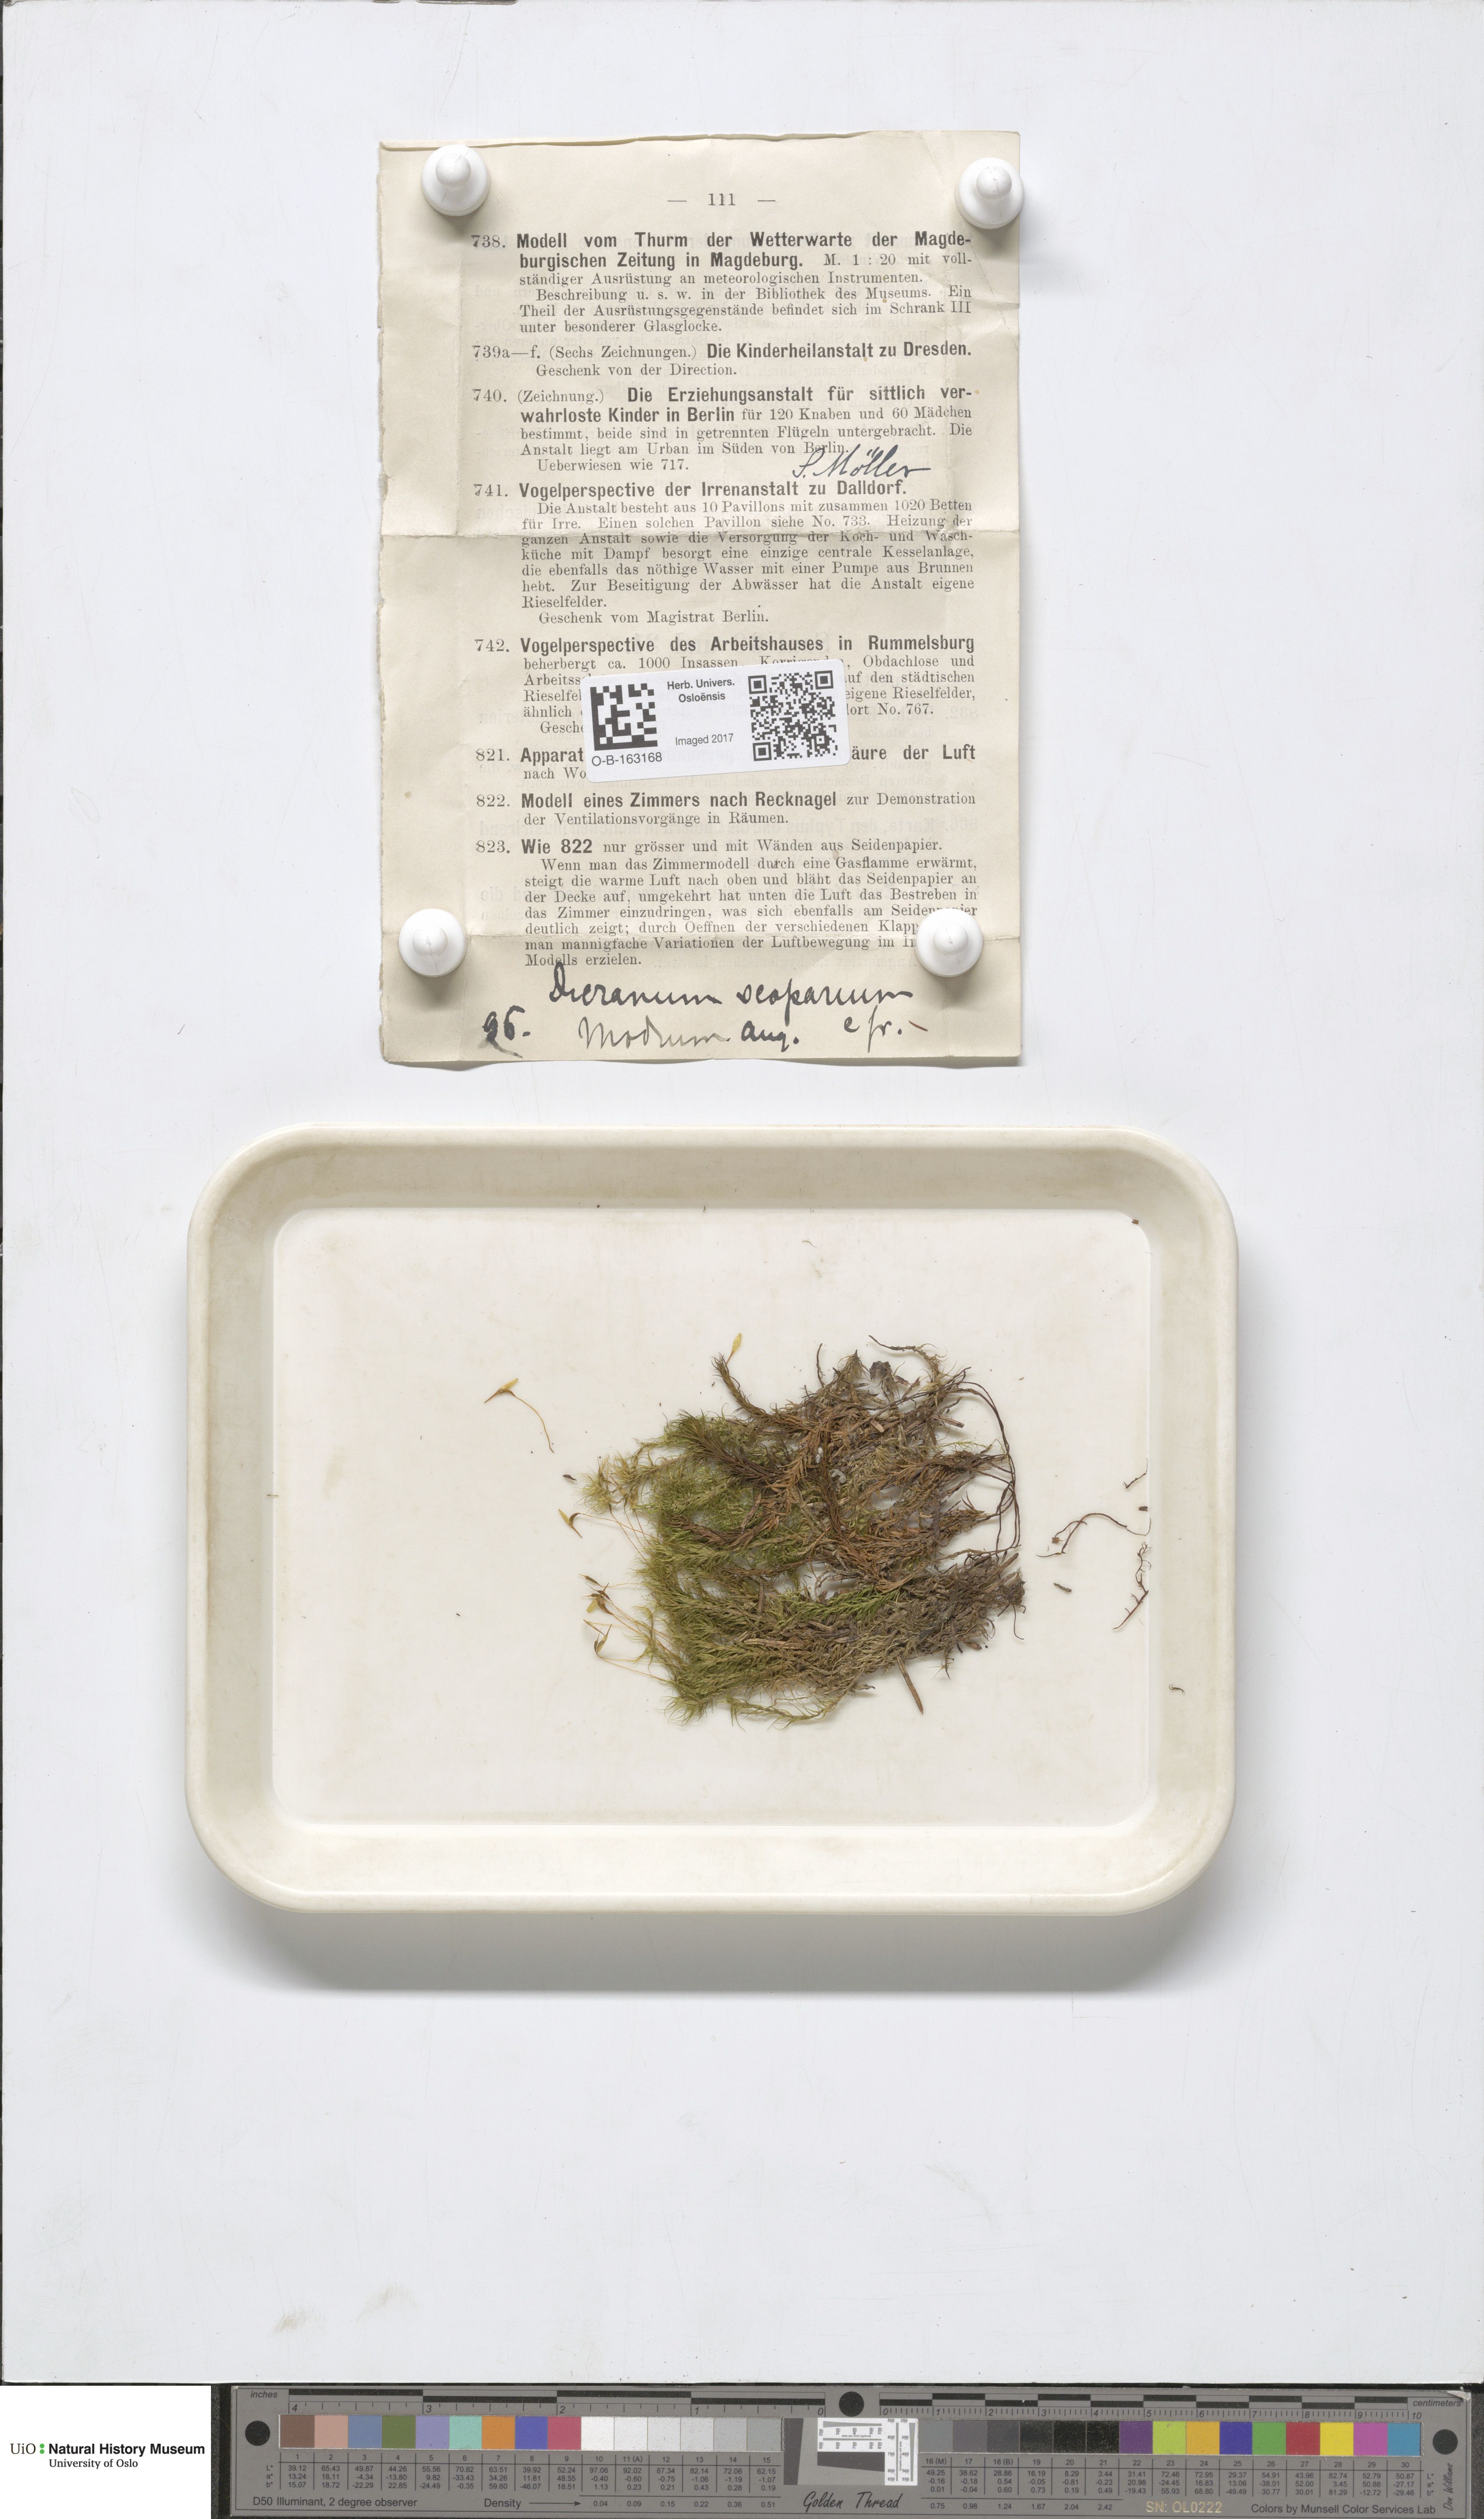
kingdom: Plantae
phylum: Bryophyta
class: Bryopsida
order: Dicranales
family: Dicranaceae
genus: Dicranum
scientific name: Dicranum scoparium
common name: Broom fork-moss
